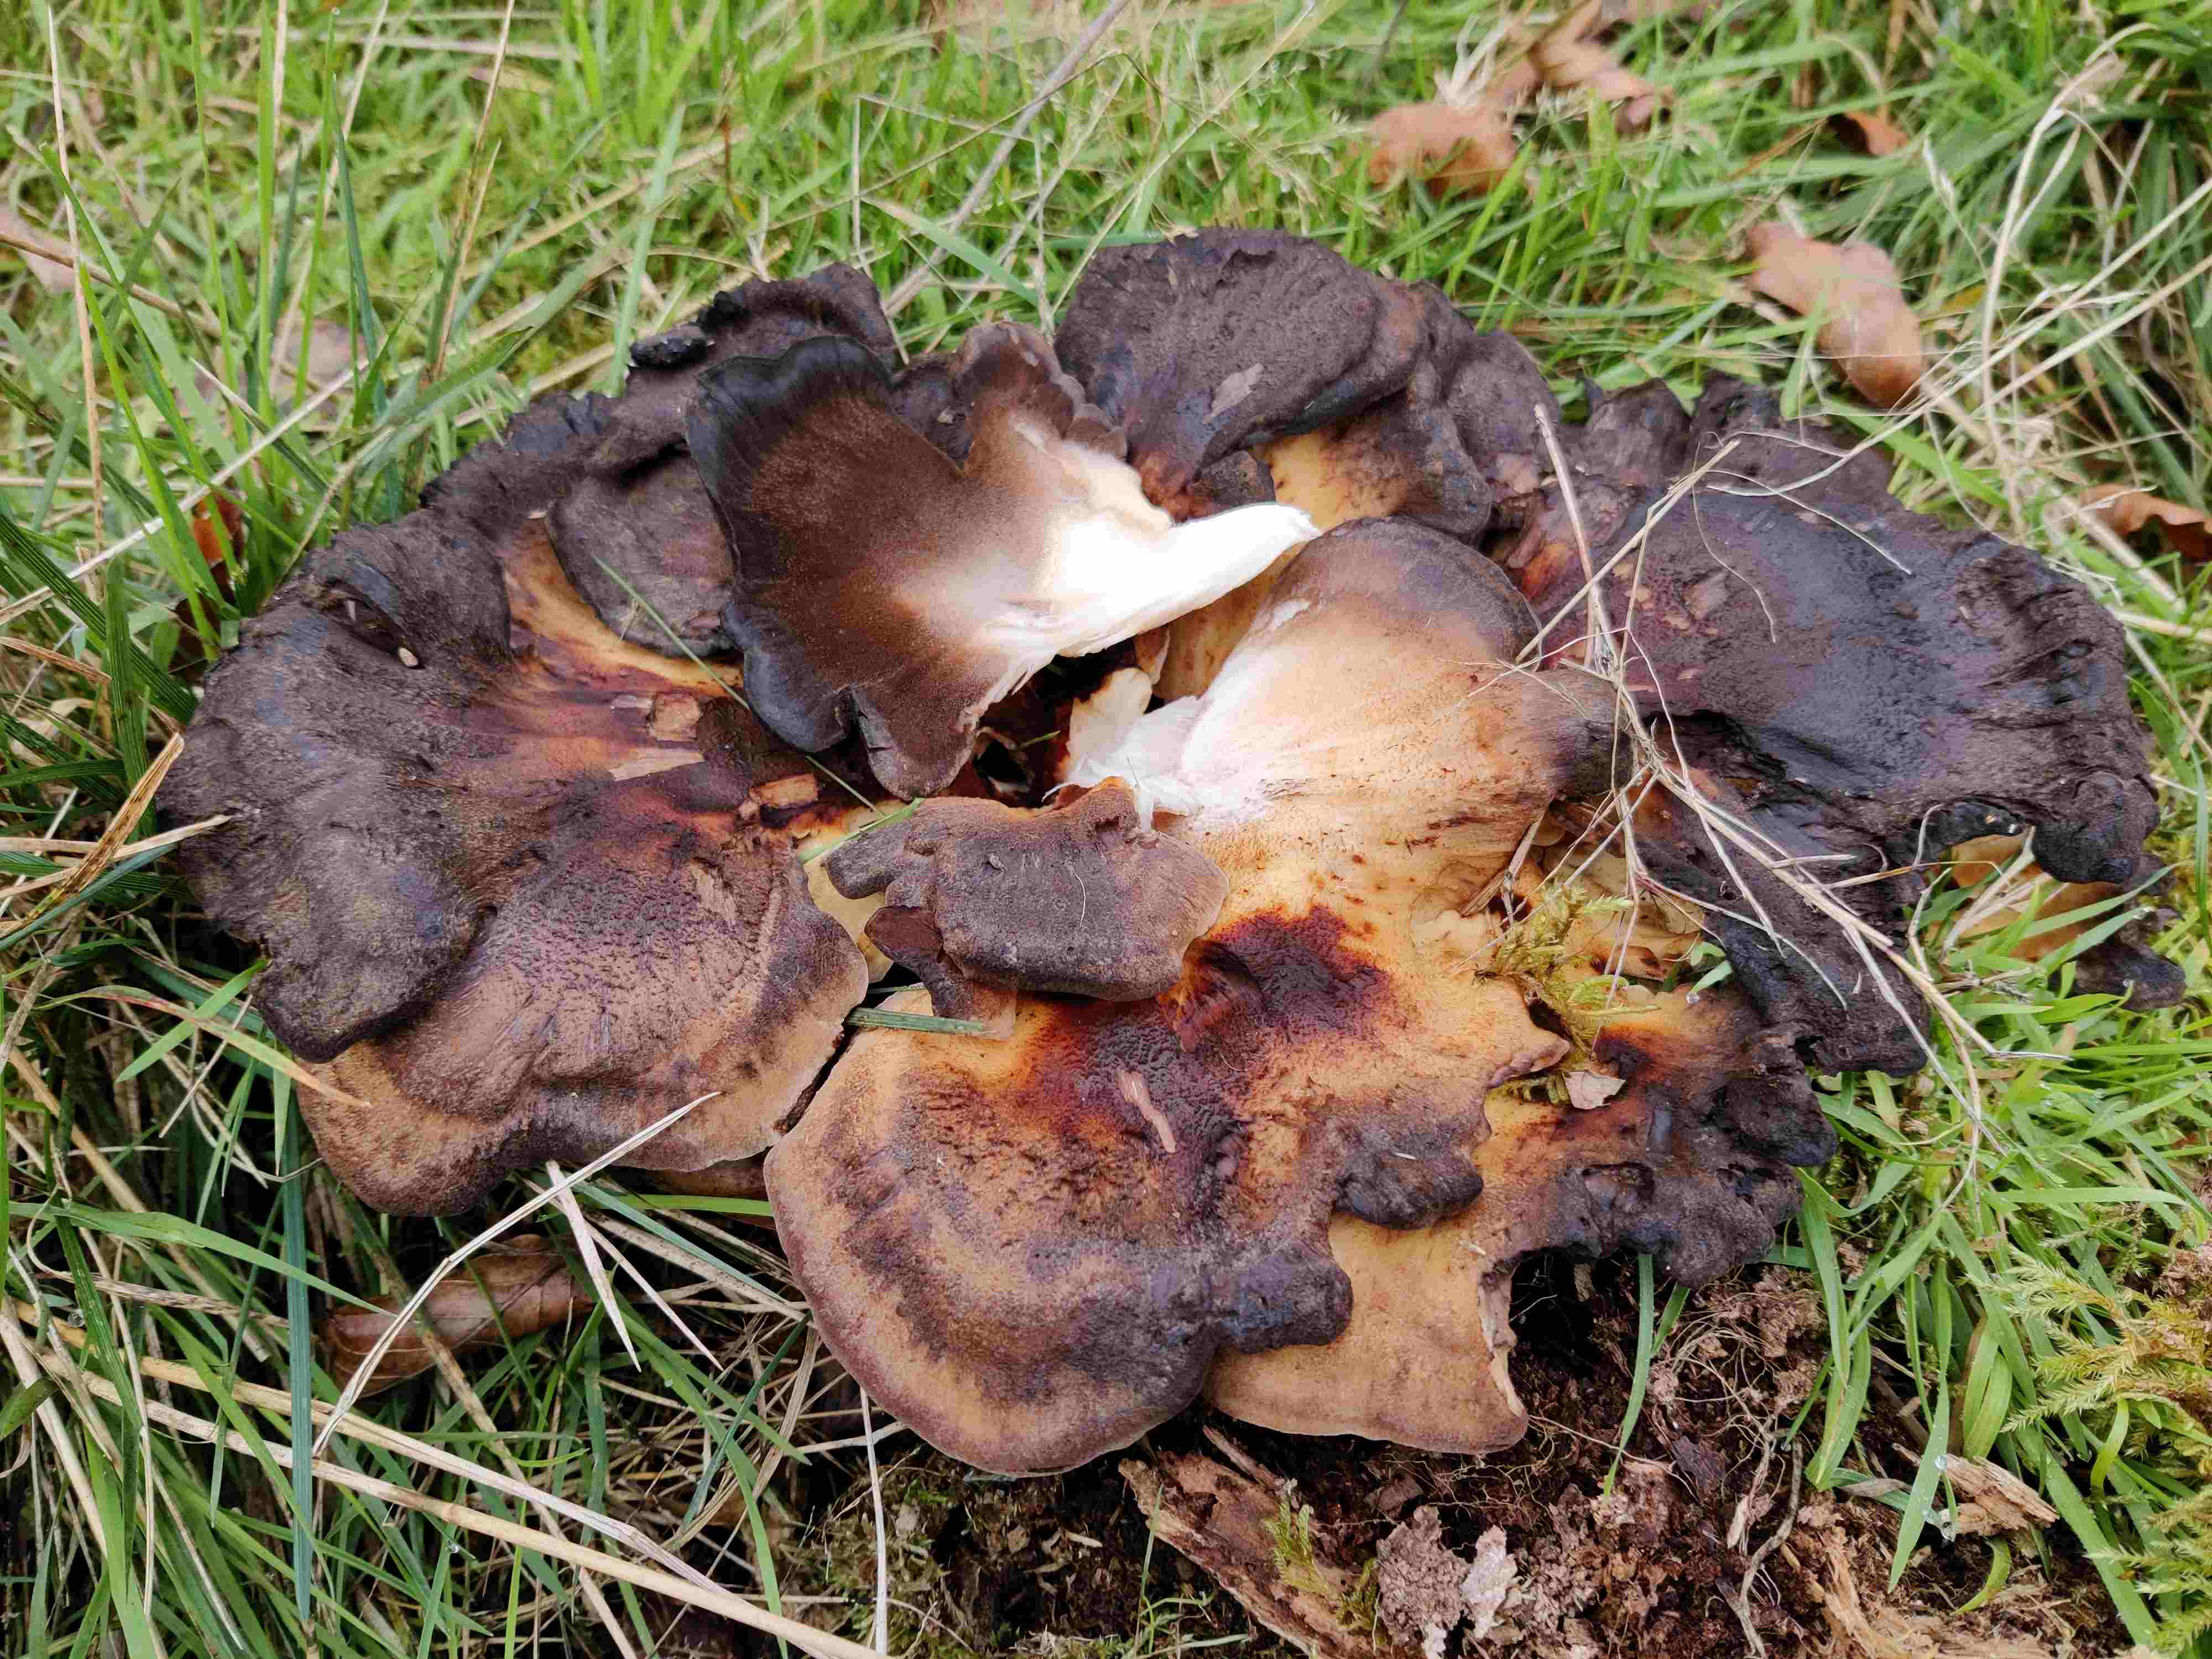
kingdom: Fungi
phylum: Basidiomycota
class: Agaricomycetes
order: Polyporales
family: Meripilaceae
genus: Meripilus
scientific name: Meripilus giganteus
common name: kæmpeporesvamp
